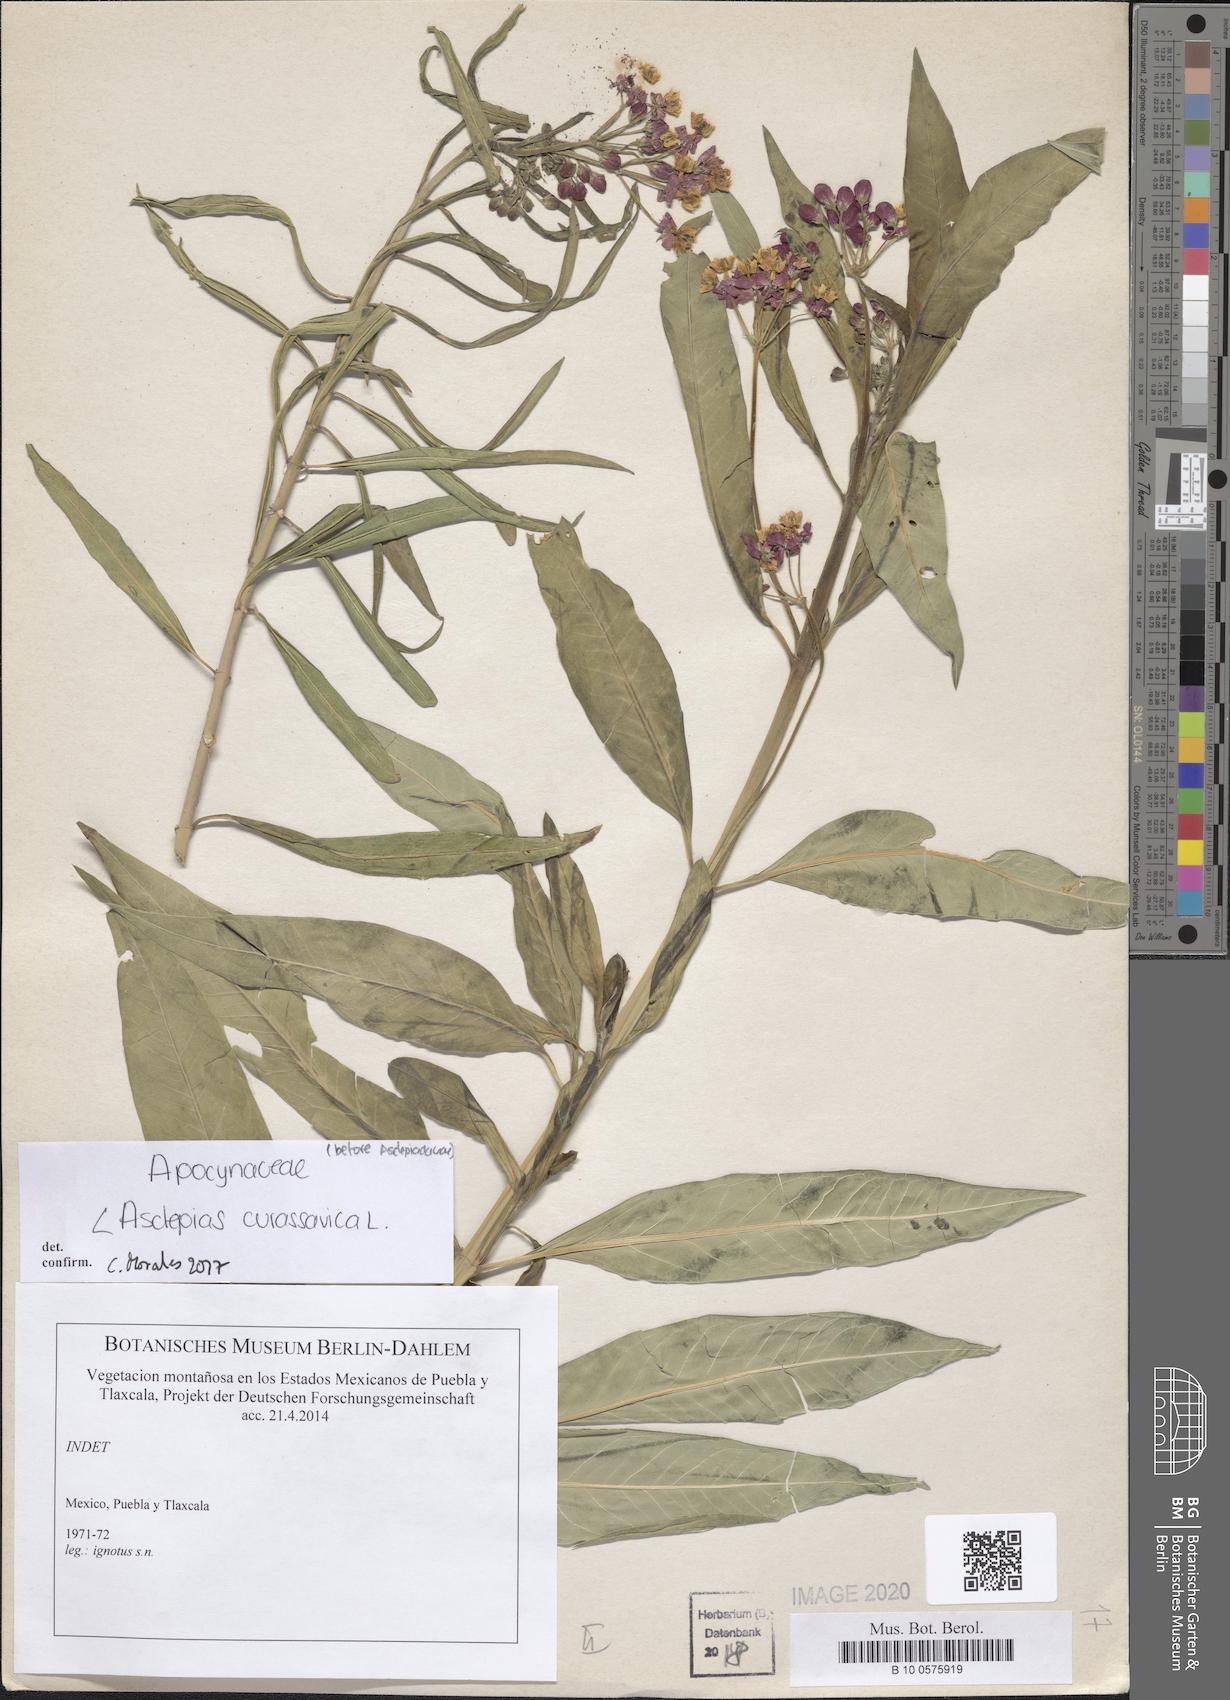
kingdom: Plantae
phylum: Tracheophyta
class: Magnoliopsida
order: Gentianales
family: Apocynaceae
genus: Asclepias
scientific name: Asclepias curassavica
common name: Bloodflower
